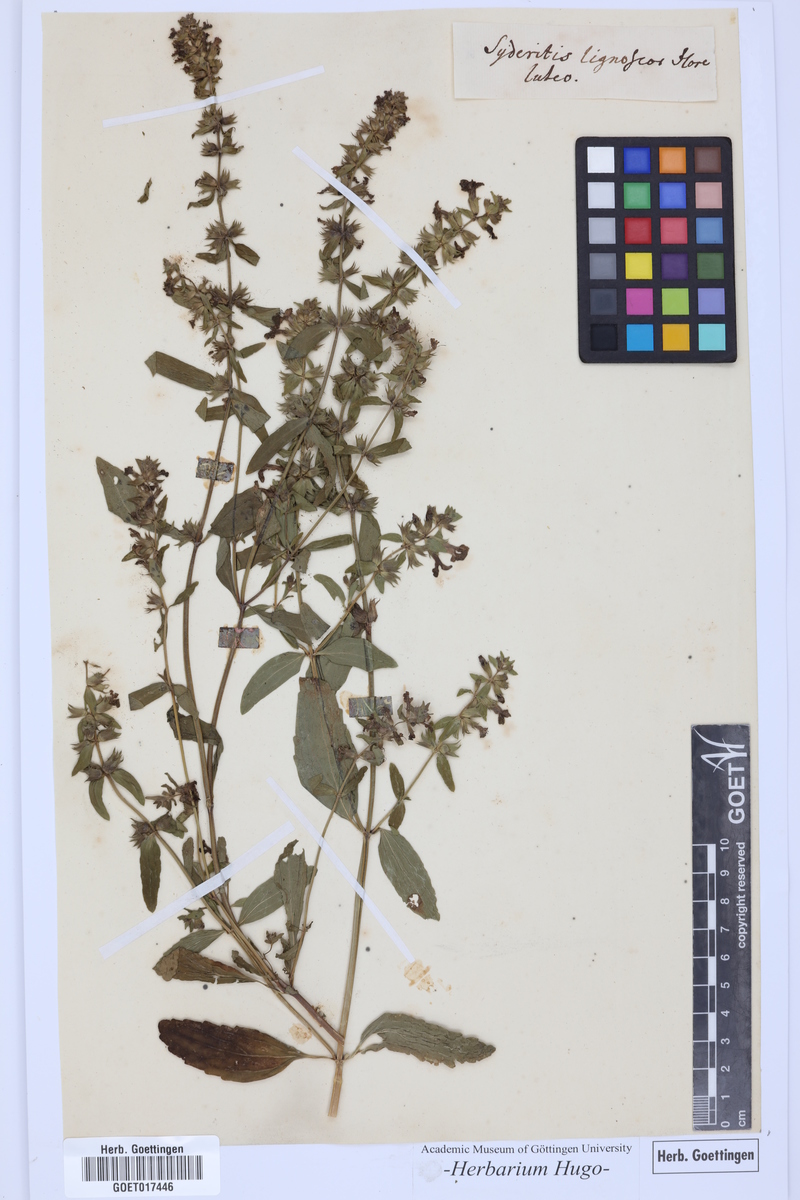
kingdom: Plantae
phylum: Tracheophyta
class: Magnoliopsida
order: Lamiales
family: Lamiaceae
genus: Sideritis
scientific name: Sideritis
